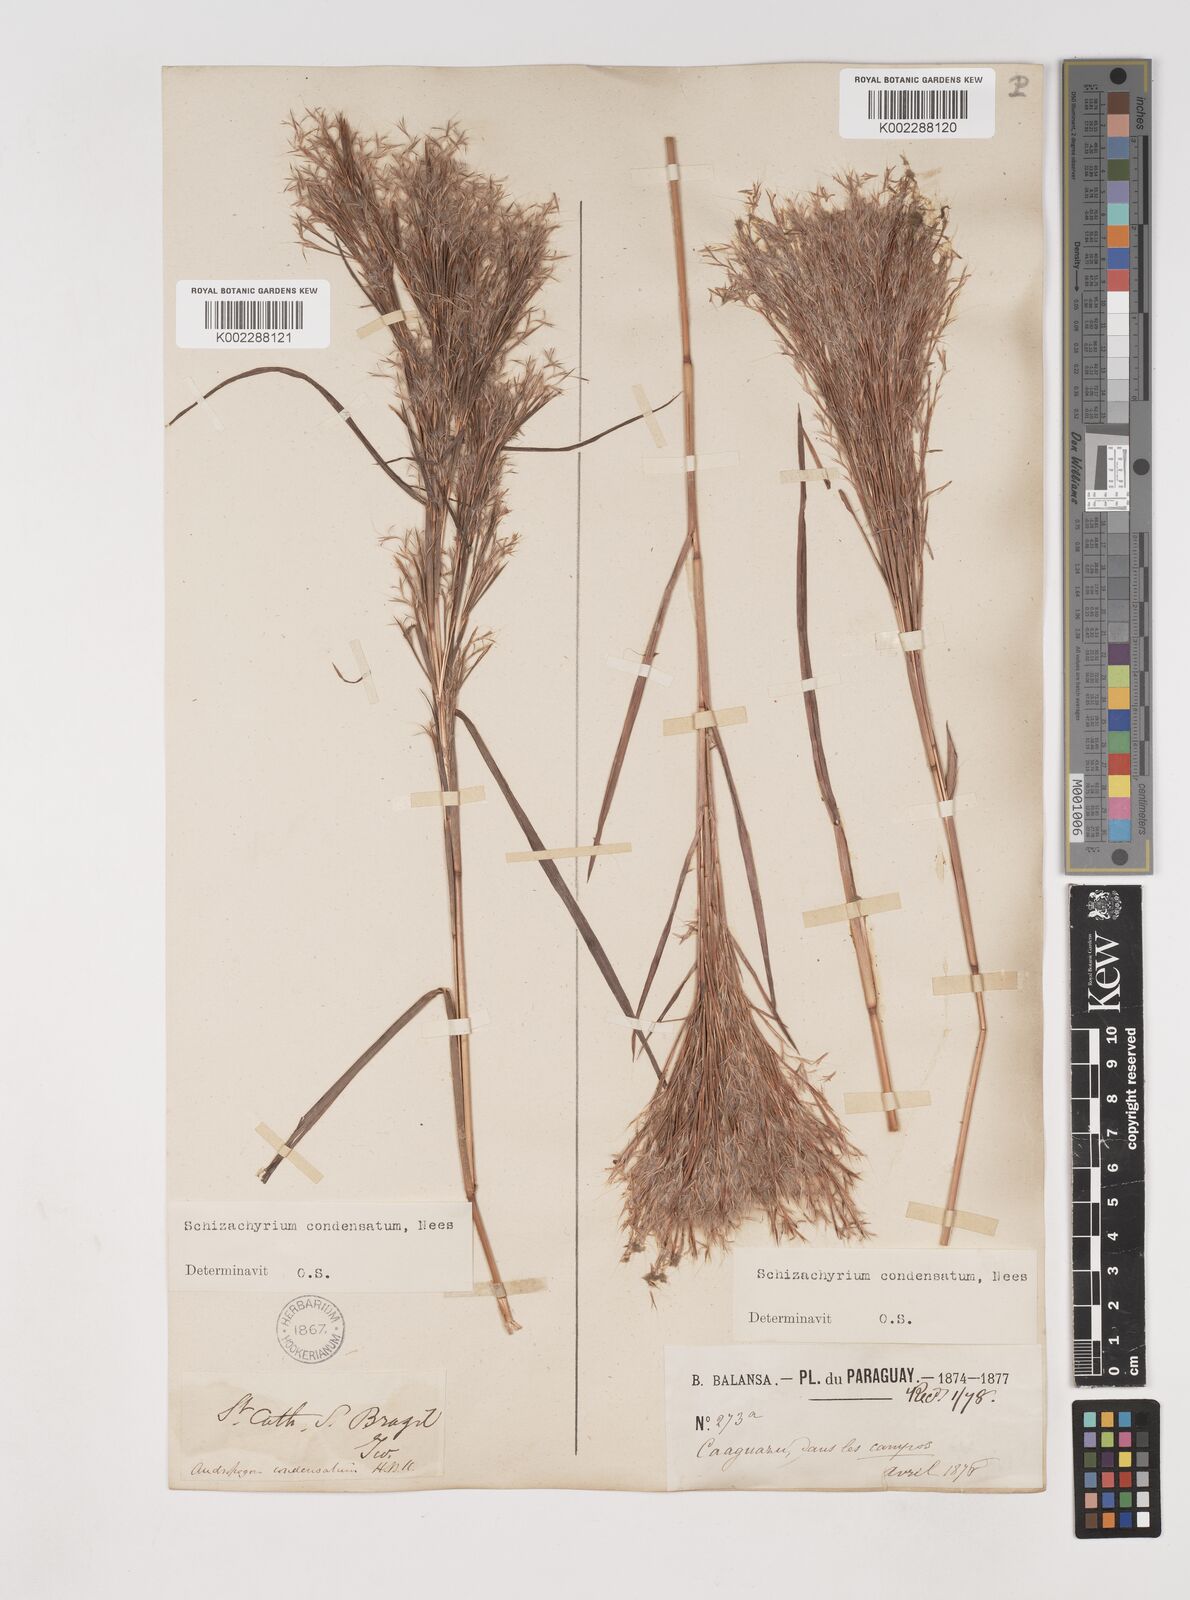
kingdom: Plantae
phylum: Tracheophyta
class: Liliopsida
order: Poales
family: Poaceae
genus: Schizachyrium
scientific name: Schizachyrium condensatum
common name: Bush beardgrass
